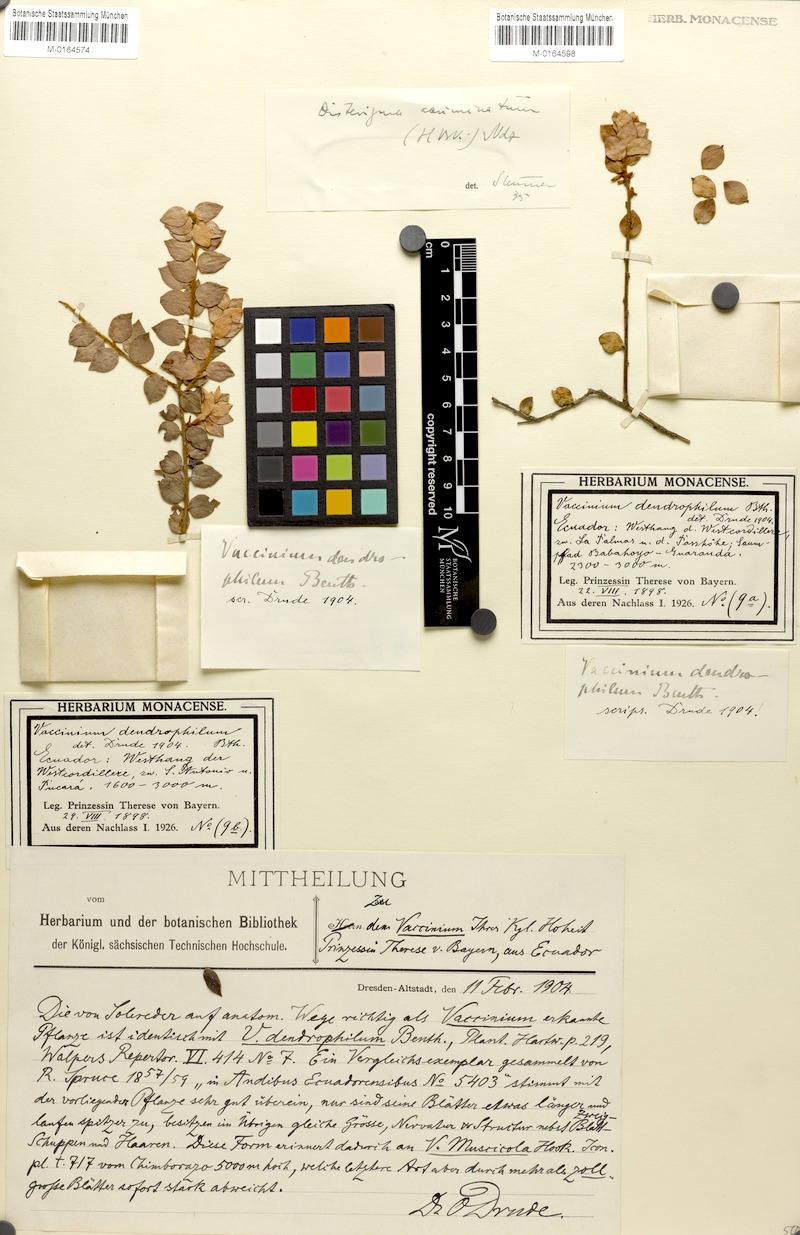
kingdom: Plantae
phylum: Tracheophyta
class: Magnoliopsida
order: Ericales
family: Ericaceae
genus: Disterigma
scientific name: Disterigma acuminatum
